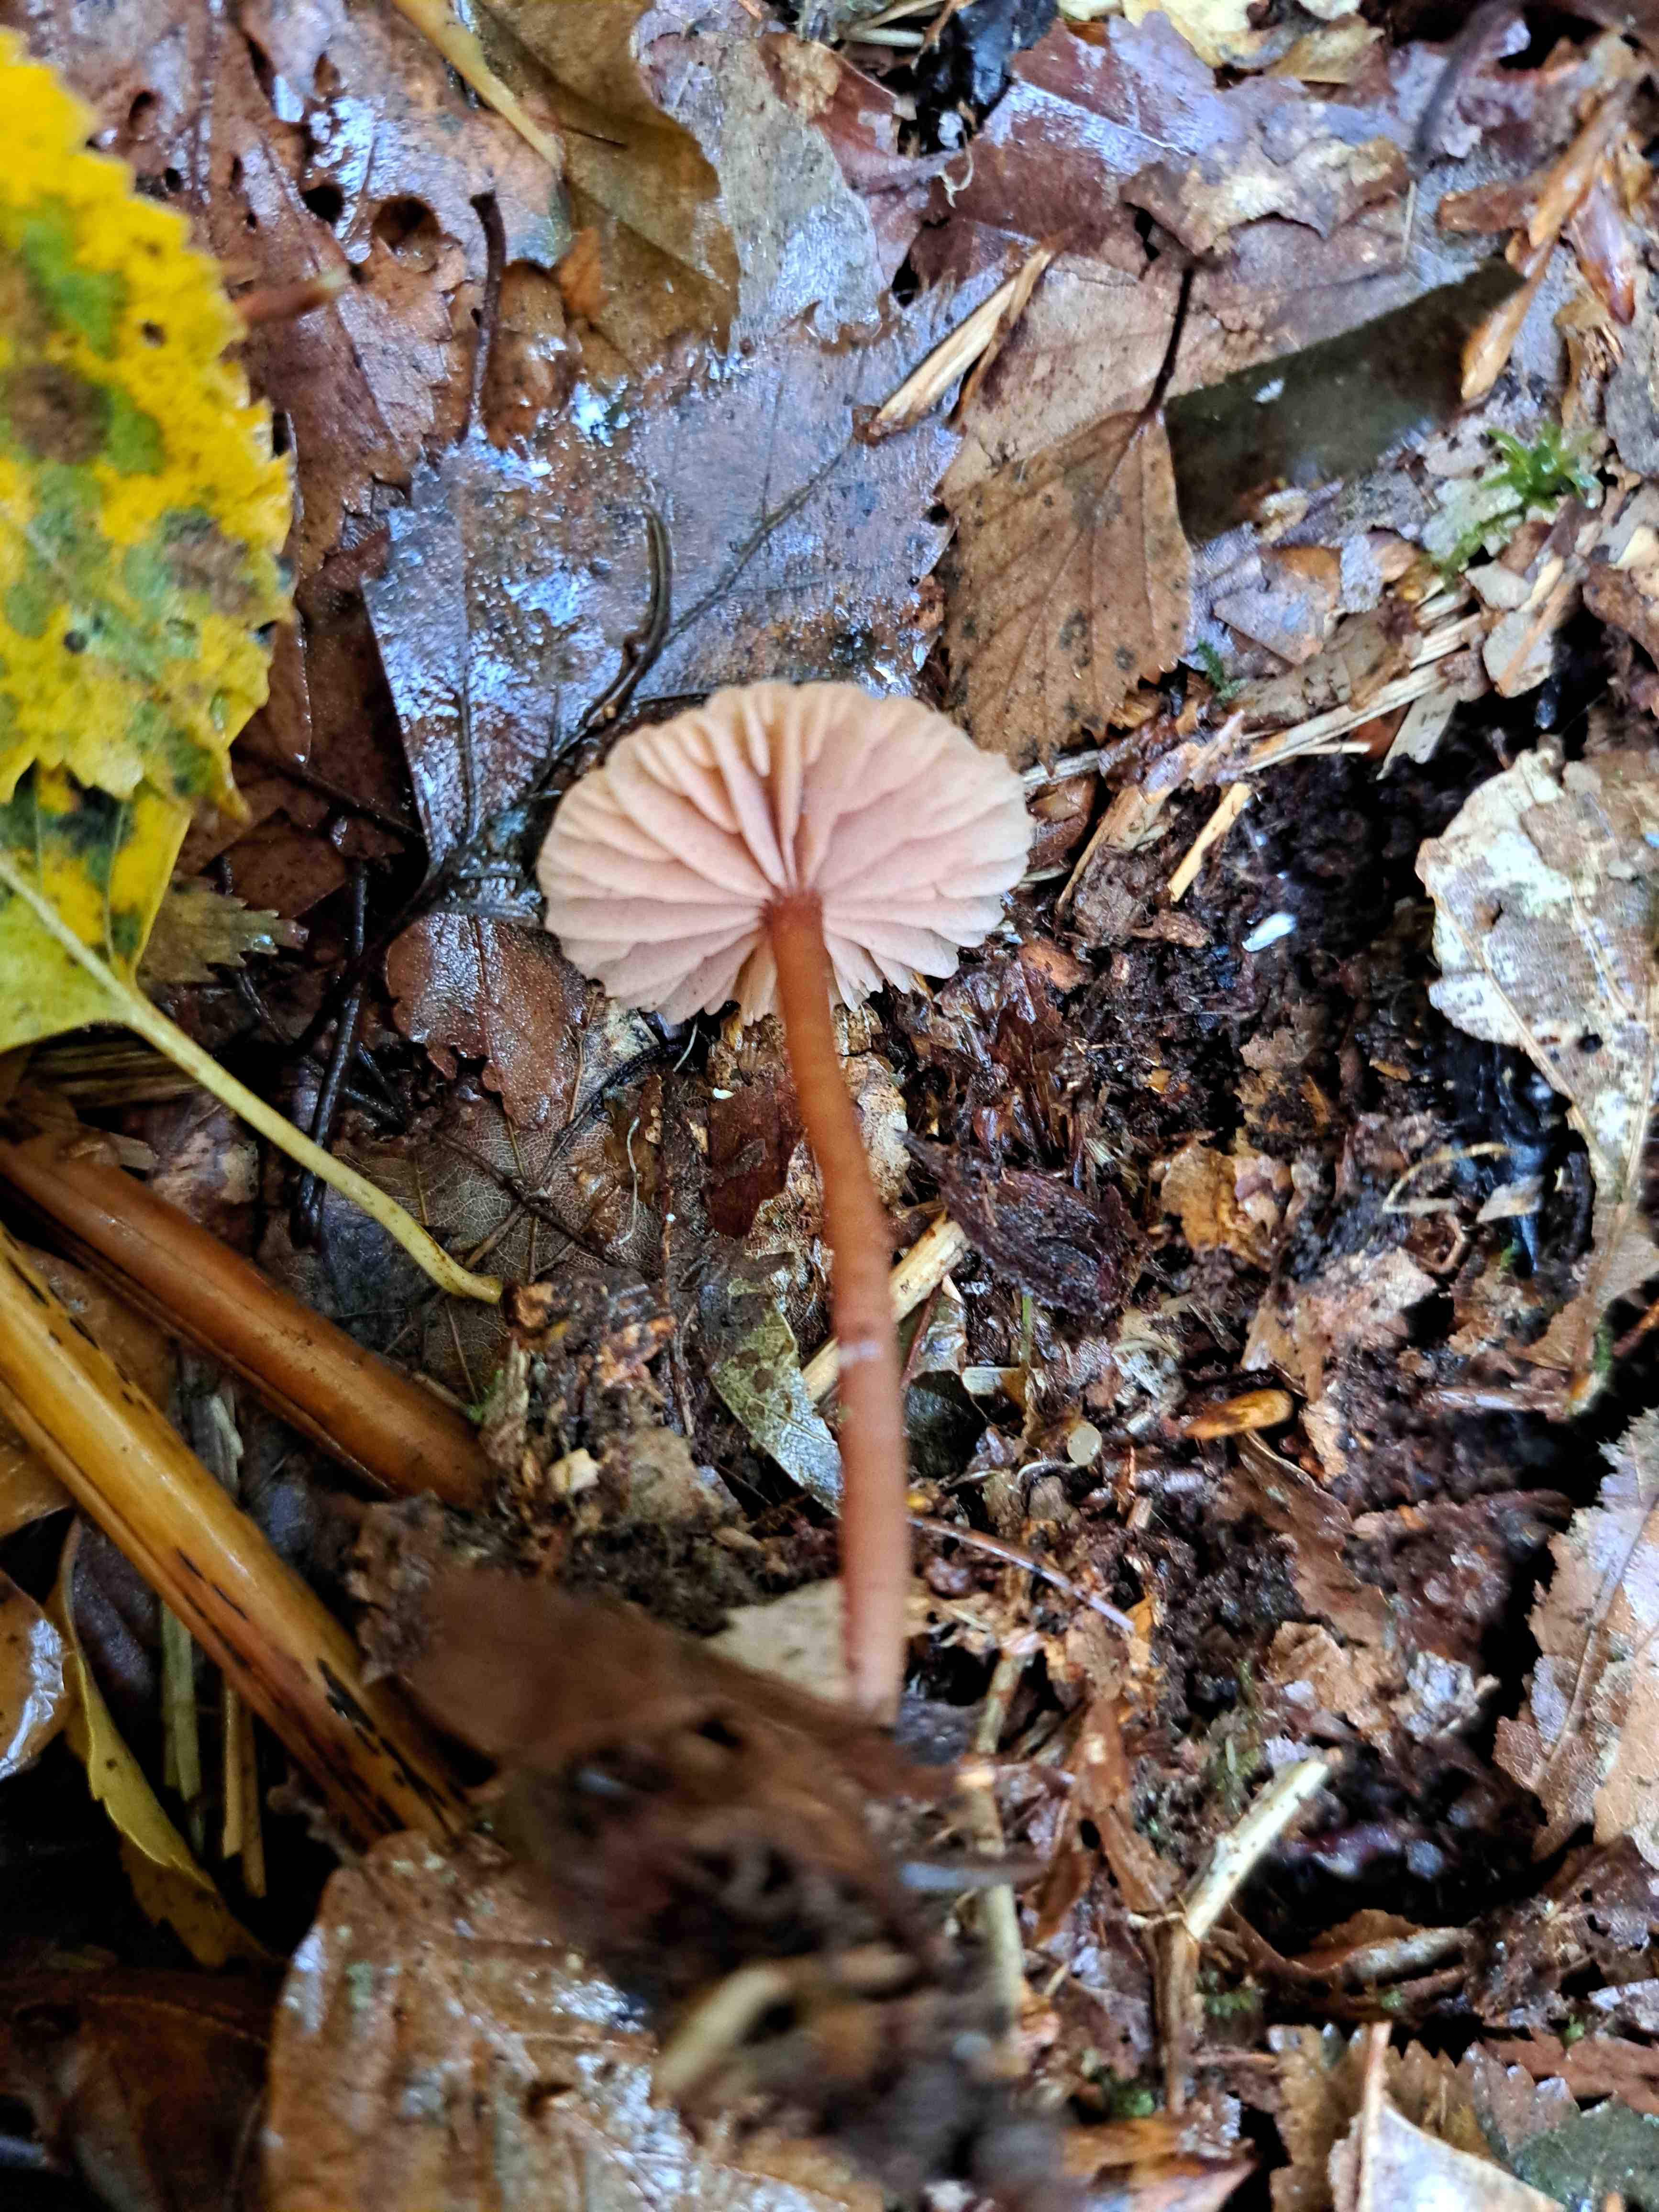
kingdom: Fungi
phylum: Basidiomycota
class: Agaricomycetes
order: Agaricales
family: Hydnangiaceae
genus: Laccaria
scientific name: Laccaria laccata
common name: rød ametysthat
